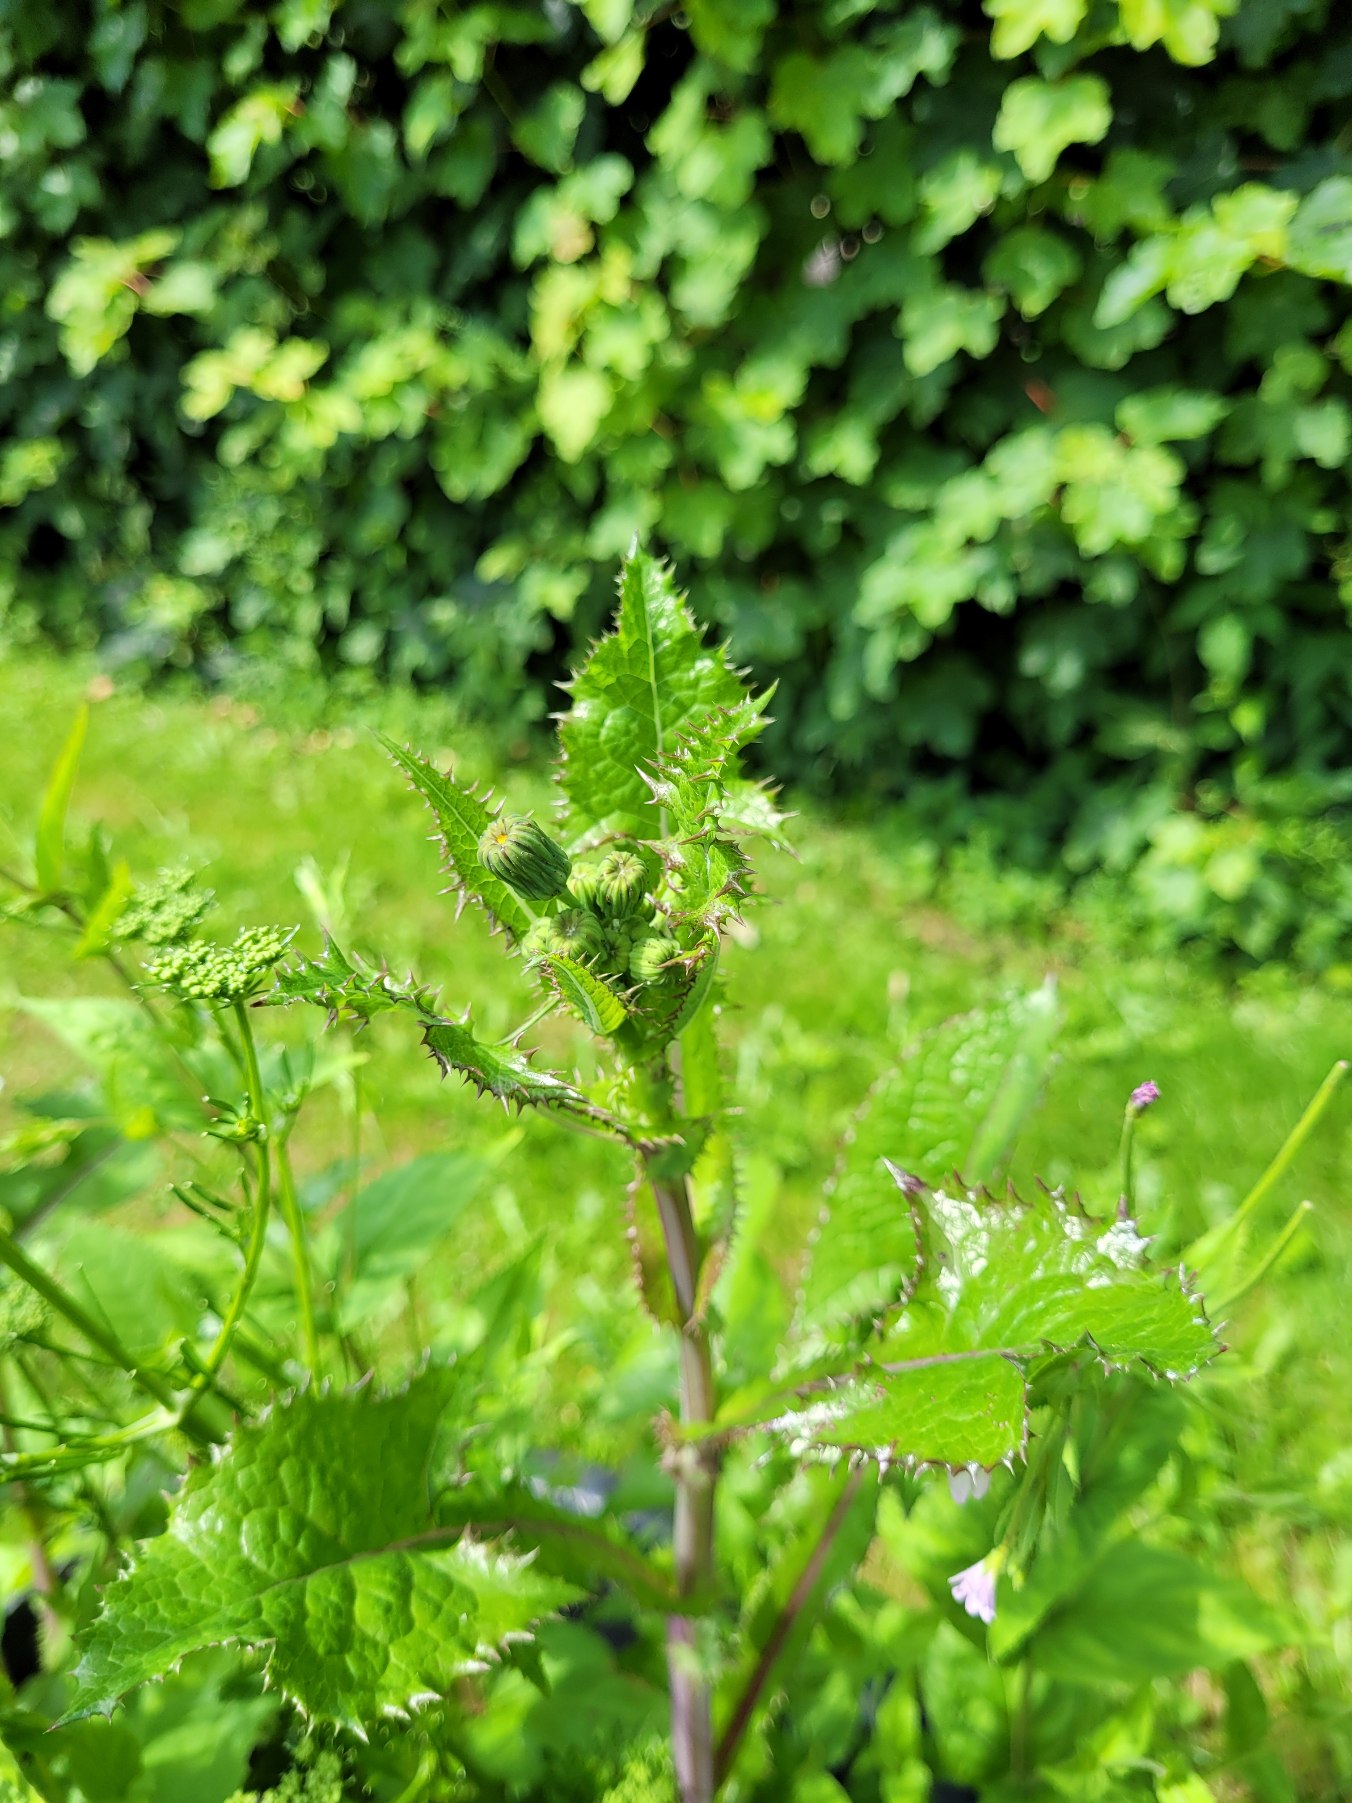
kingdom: Plantae
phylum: Tracheophyta
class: Magnoliopsida
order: Asterales
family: Asteraceae
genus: Sonchus
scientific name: Sonchus asper
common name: Ru svinemælk
